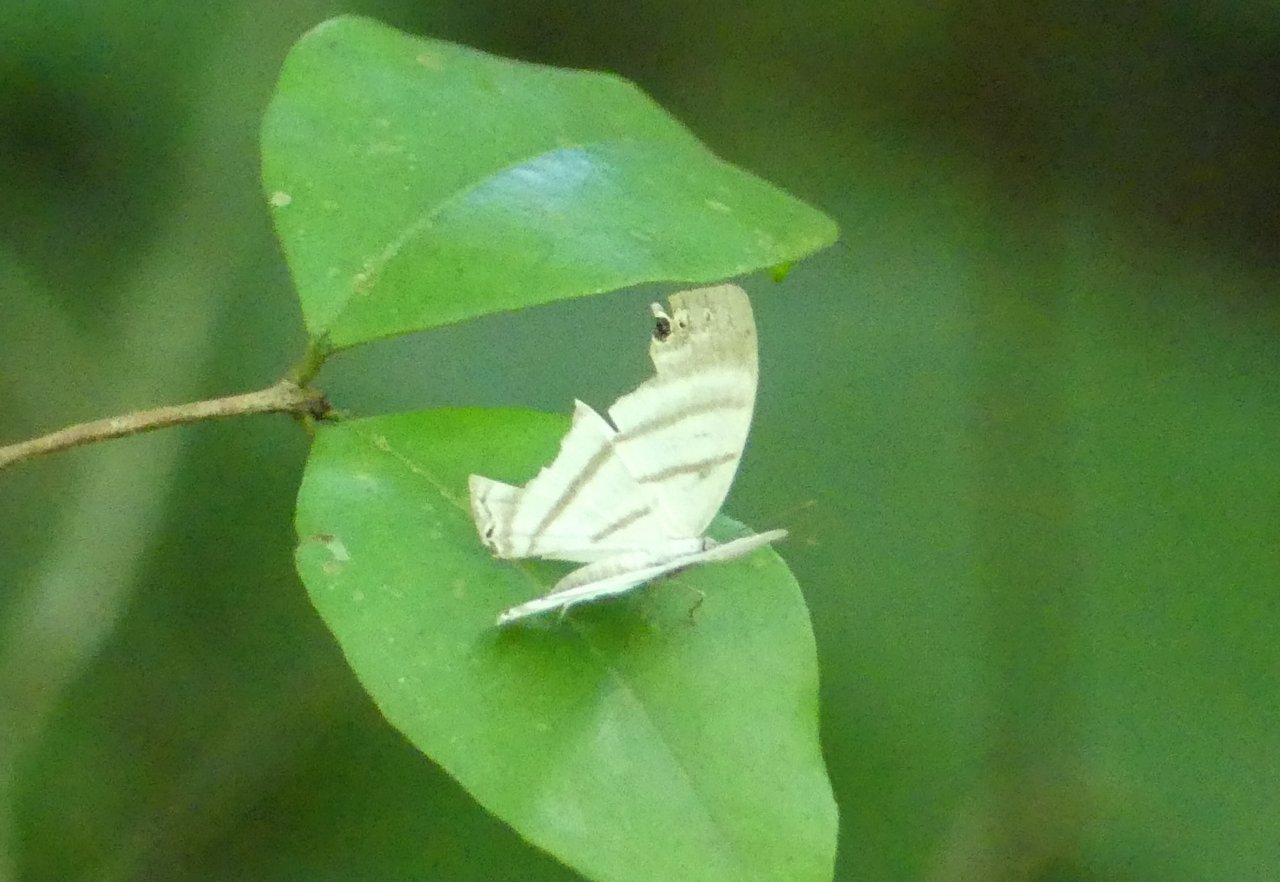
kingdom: Animalia
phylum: Arthropoda
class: Insecta
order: Lepidoptera
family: Riodinidae
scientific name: Riodinidae
